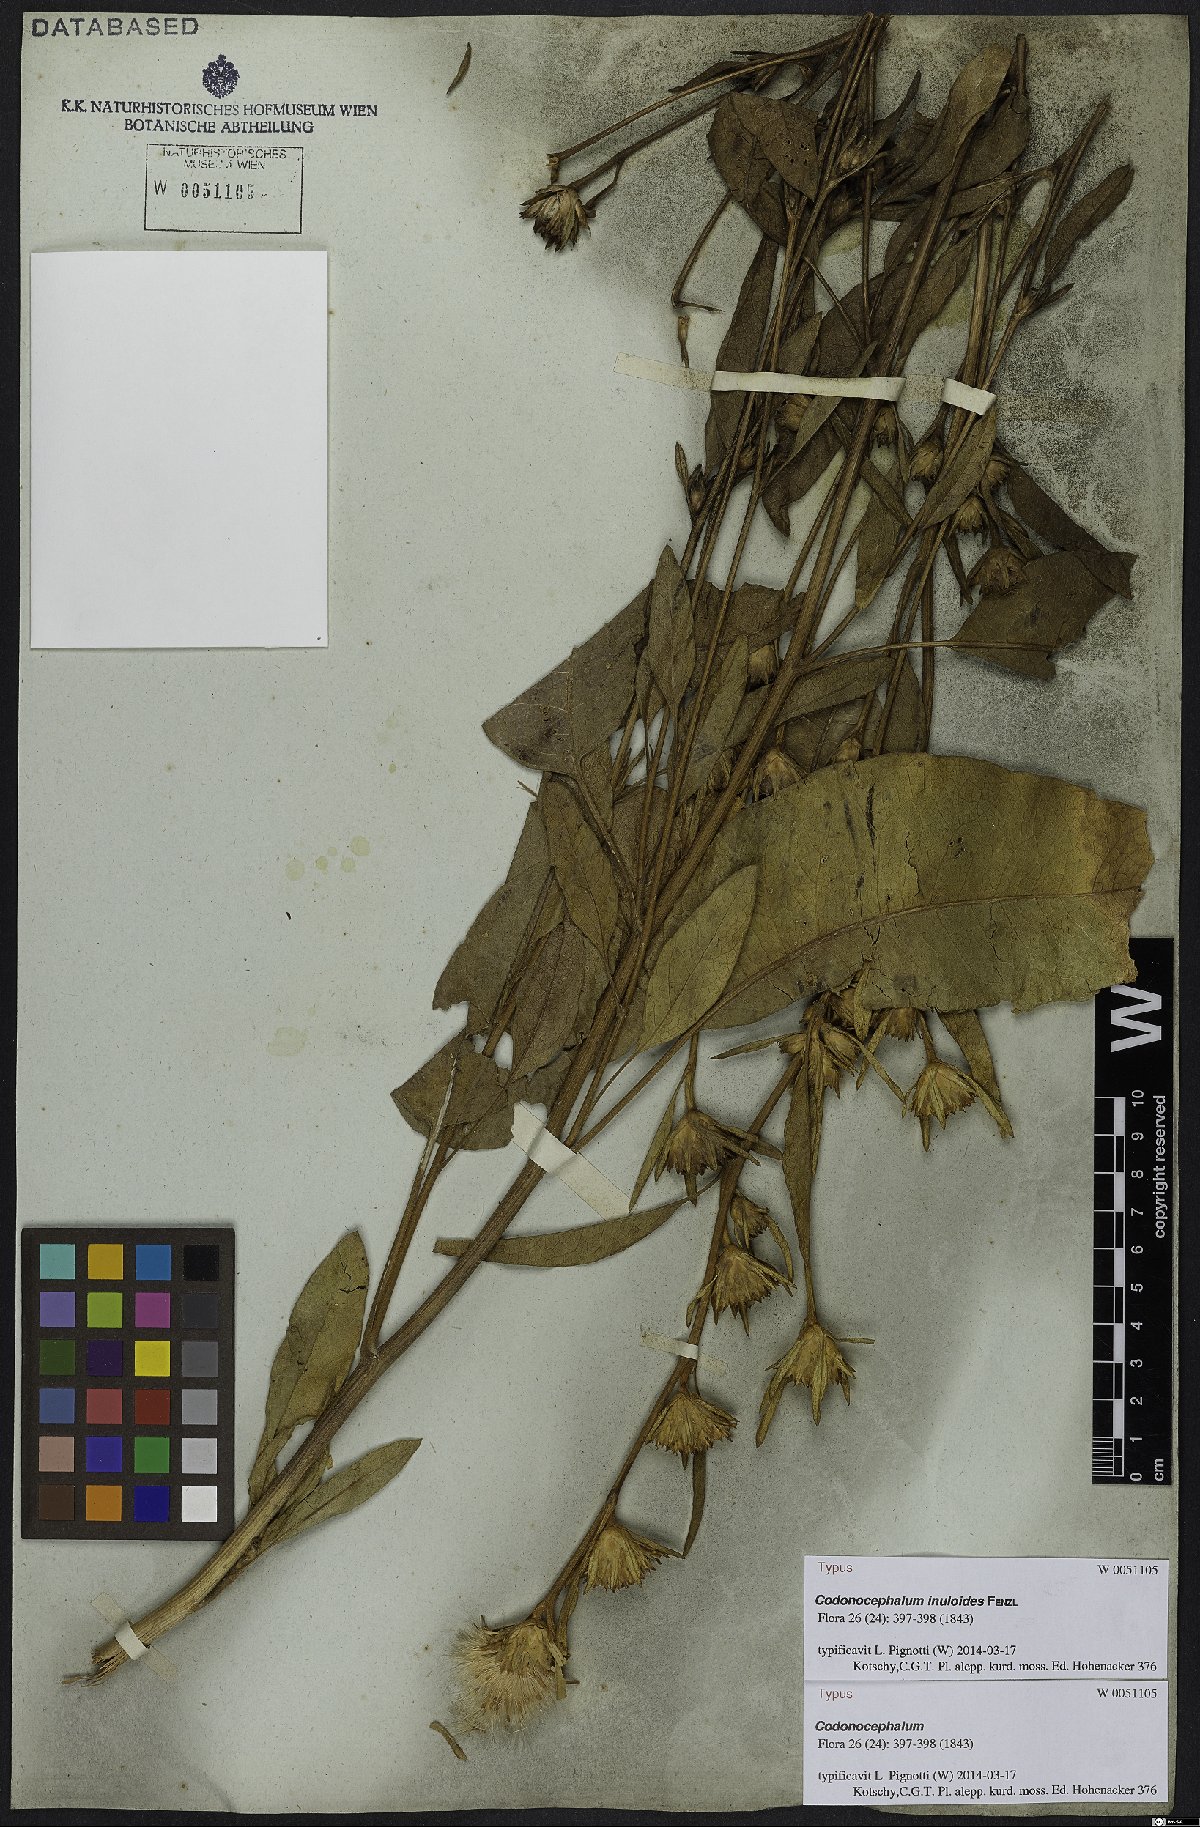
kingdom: Plantae
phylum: Tracheophyta
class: Magnoliopsida
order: Asterales
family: Asteraceae
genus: Inula
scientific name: Inula inuloides
